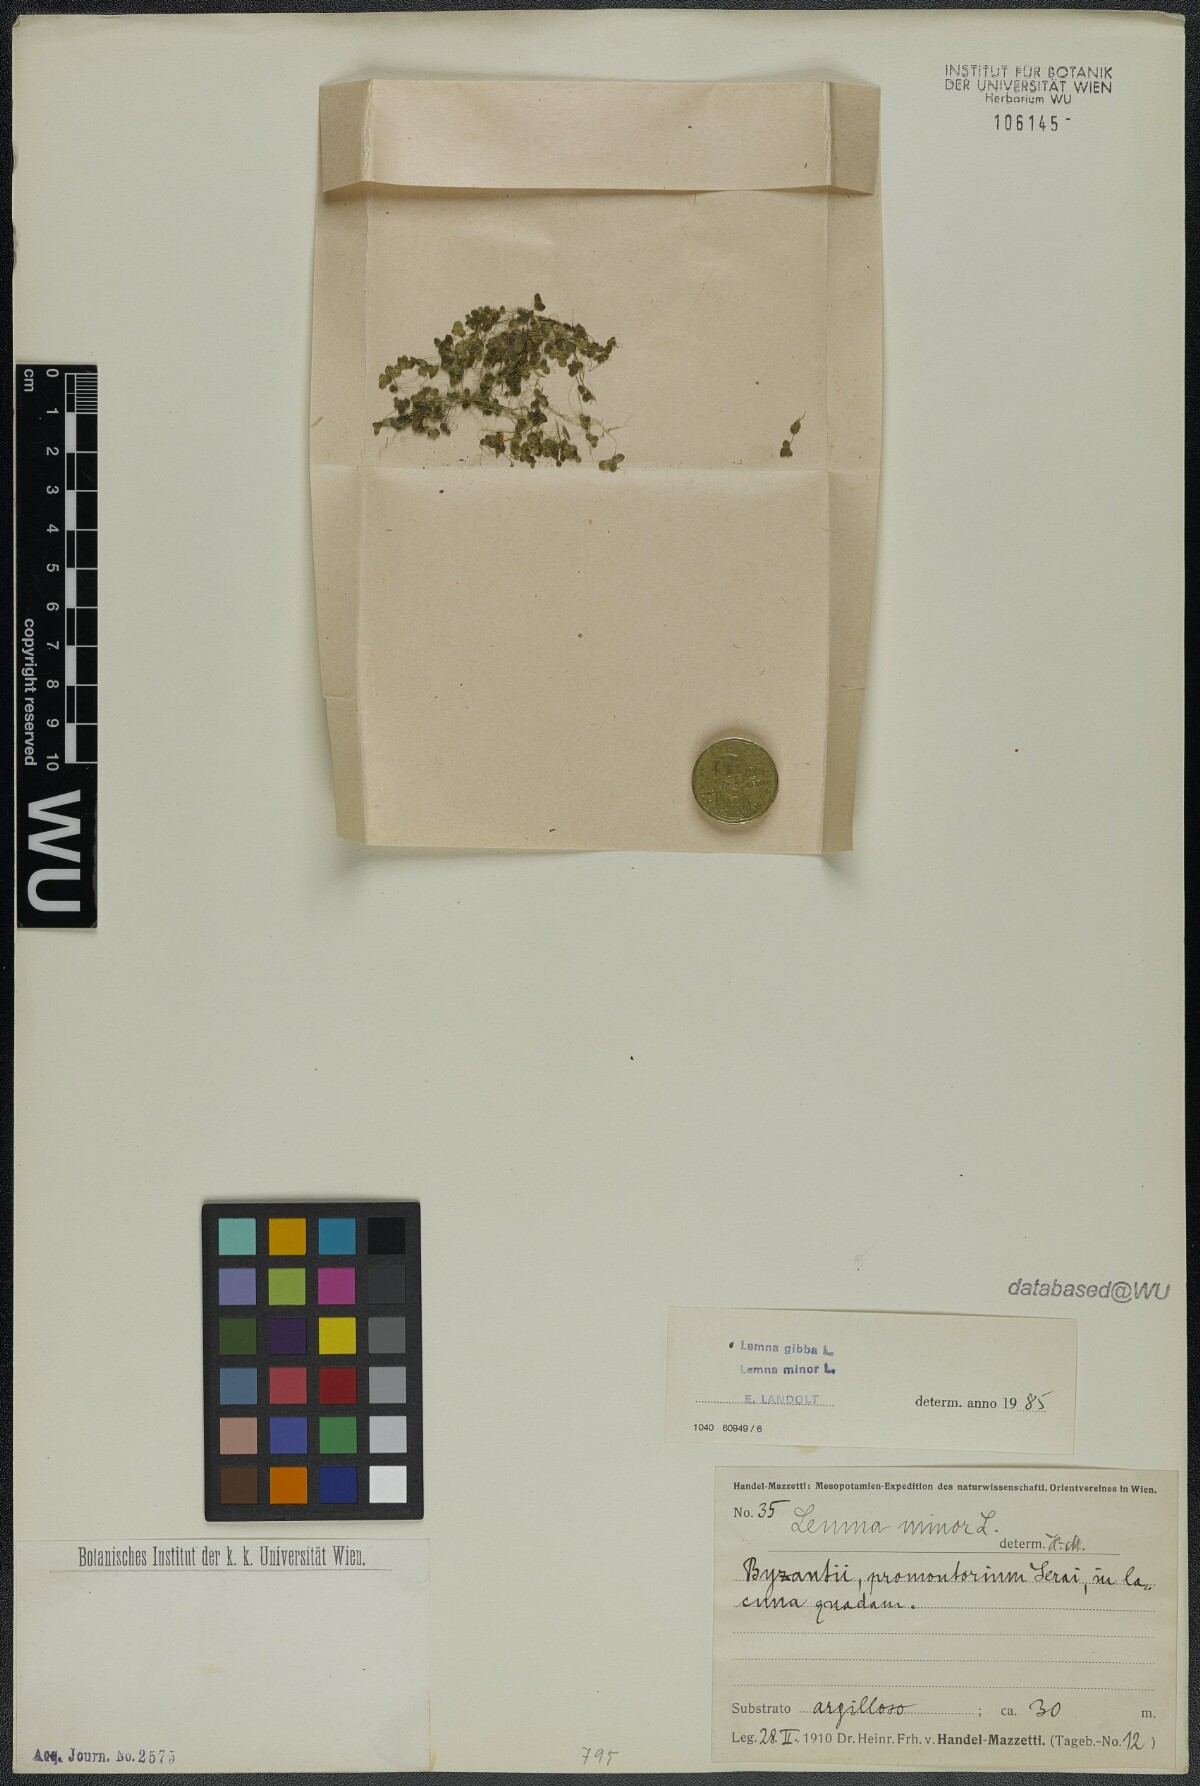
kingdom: Plantae
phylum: Tracheophyta
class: Liliopsida
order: Alismatales
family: Araceae
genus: Lemna
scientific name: Lemna minor
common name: Common duckweed
